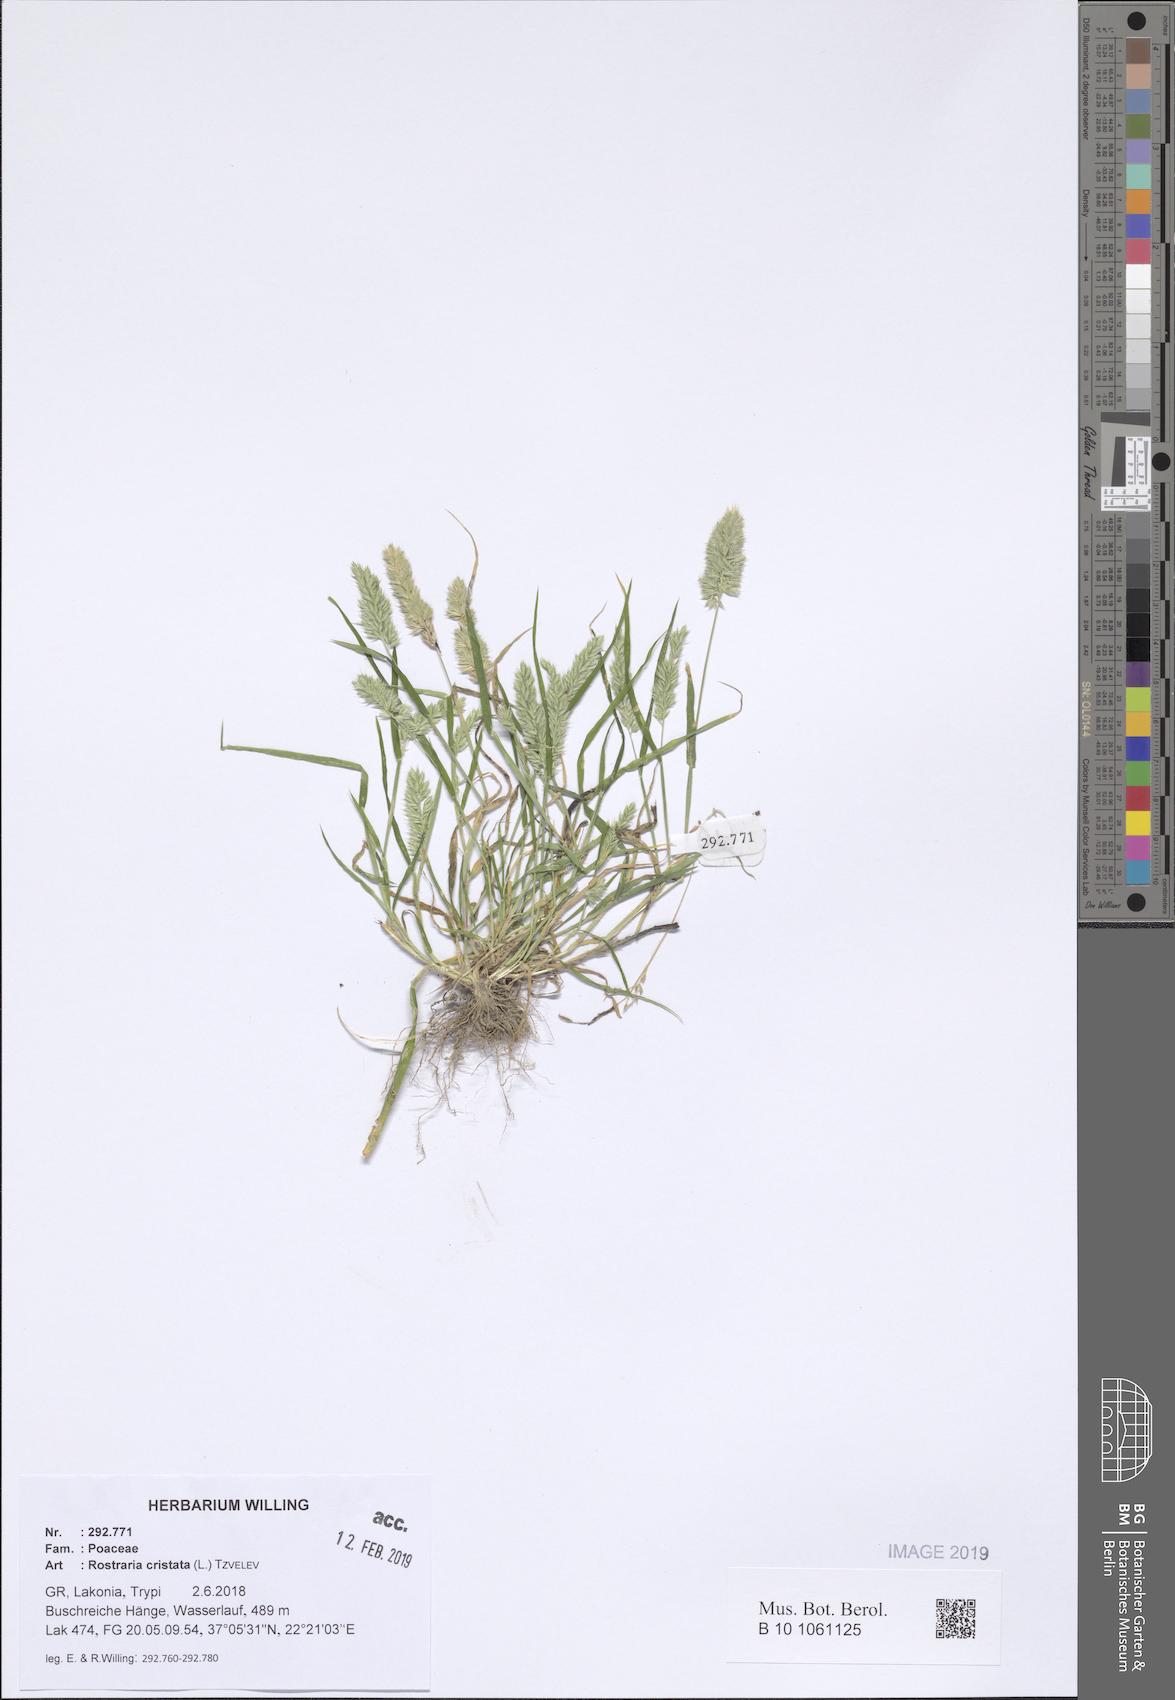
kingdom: Plantae
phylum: Tracheophyta
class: Liliopsida
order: Poales
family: Poaceae
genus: Rostraria
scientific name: Rostraria cristata
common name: Mediterranean hair-grass
